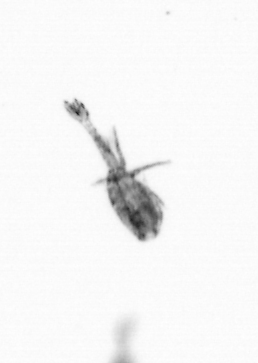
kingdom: Animalia
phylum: Arthropoda
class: Copepoda
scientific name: Copepoda
